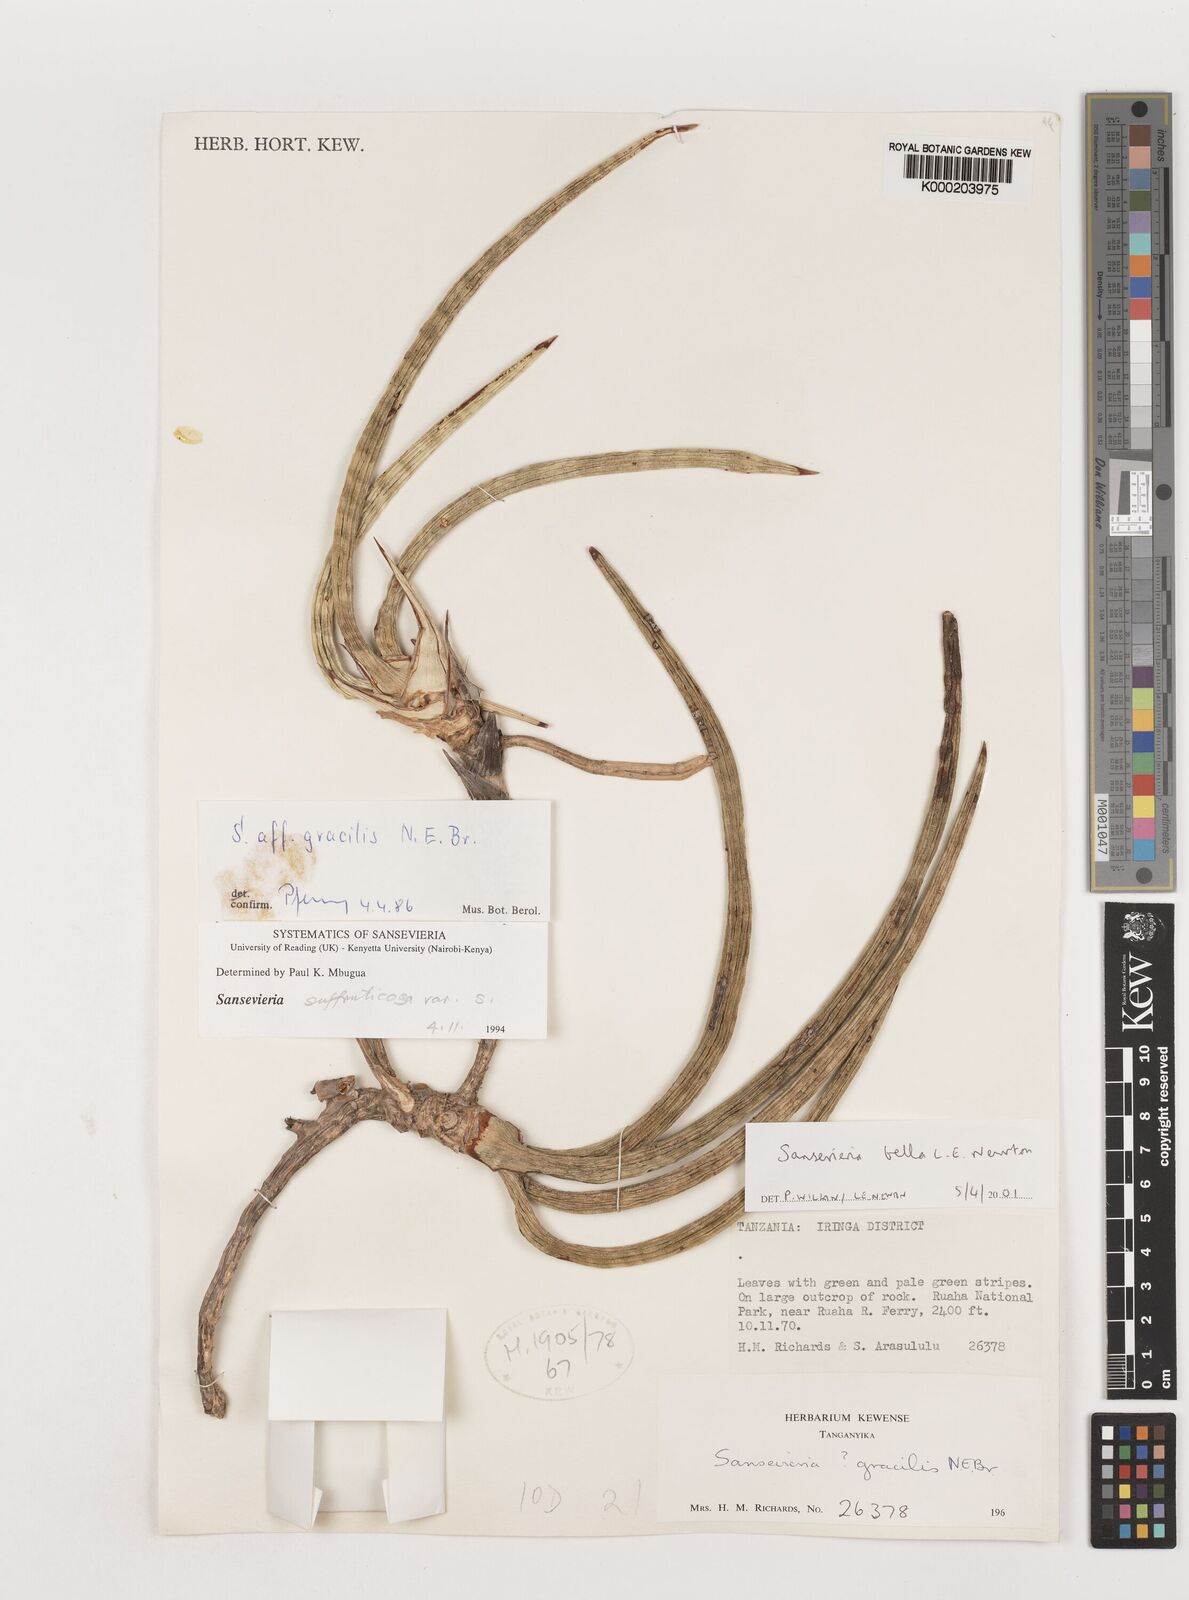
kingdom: Plantae
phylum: Tracheophyta
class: Liliopsida
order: Asparagales
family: Asparagaceae
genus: Dracaena
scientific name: Dracaena neobella
